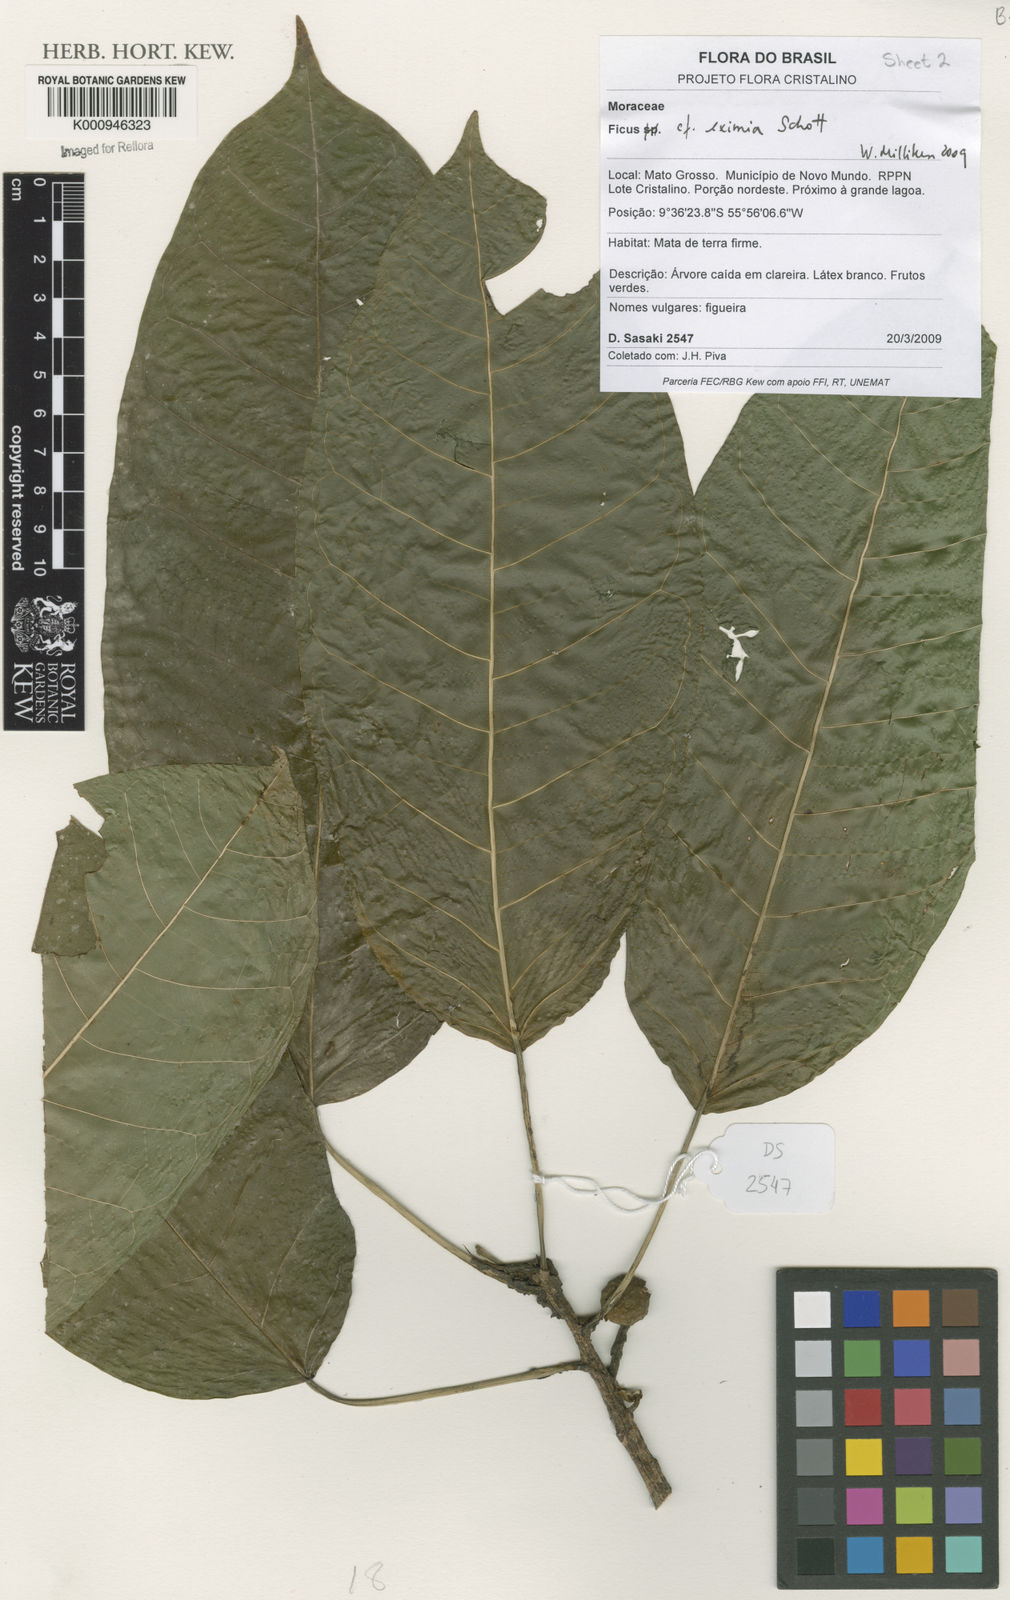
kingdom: Plantae
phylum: Tracheophyta
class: Magnoliopsida
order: Rosales
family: Moraceae
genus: Ficus
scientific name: Ficus eximia
